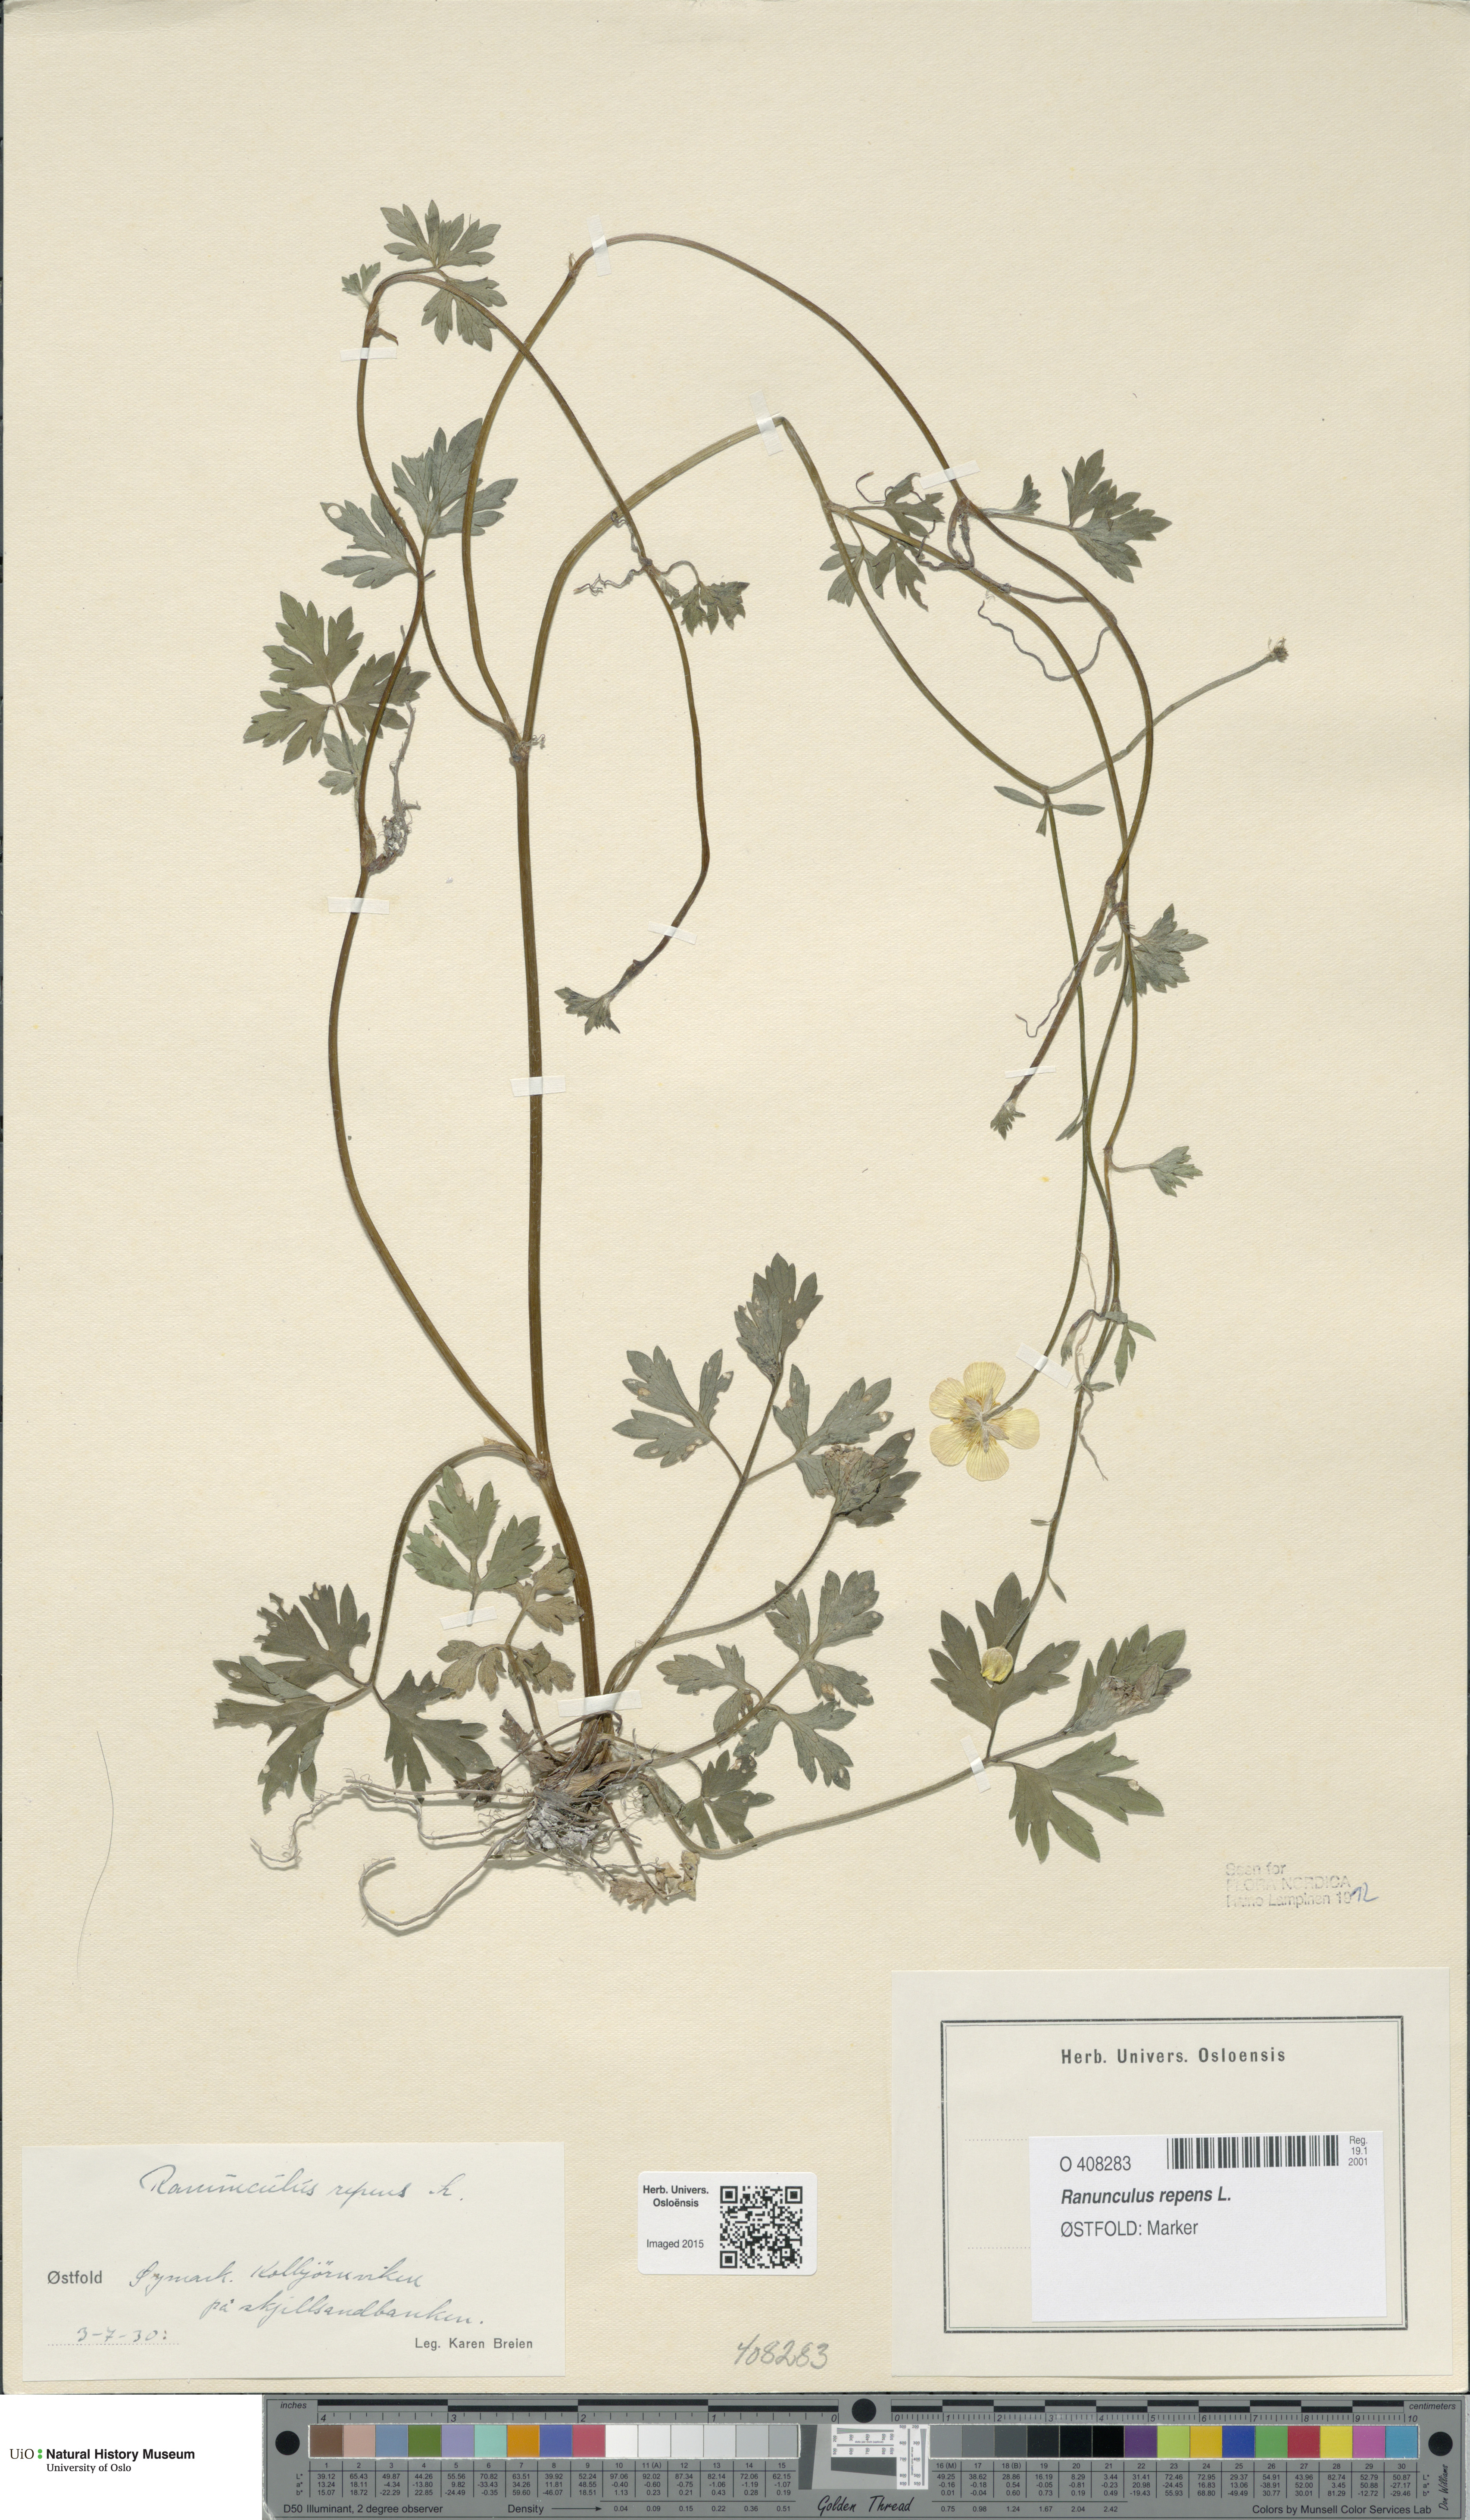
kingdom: Plantae
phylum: Tracheophyta
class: Magnoliopsida
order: Ranunculales
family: Ranunculaceae
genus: Ranunculus
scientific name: Ranunculus repens
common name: Creeping buttercup
